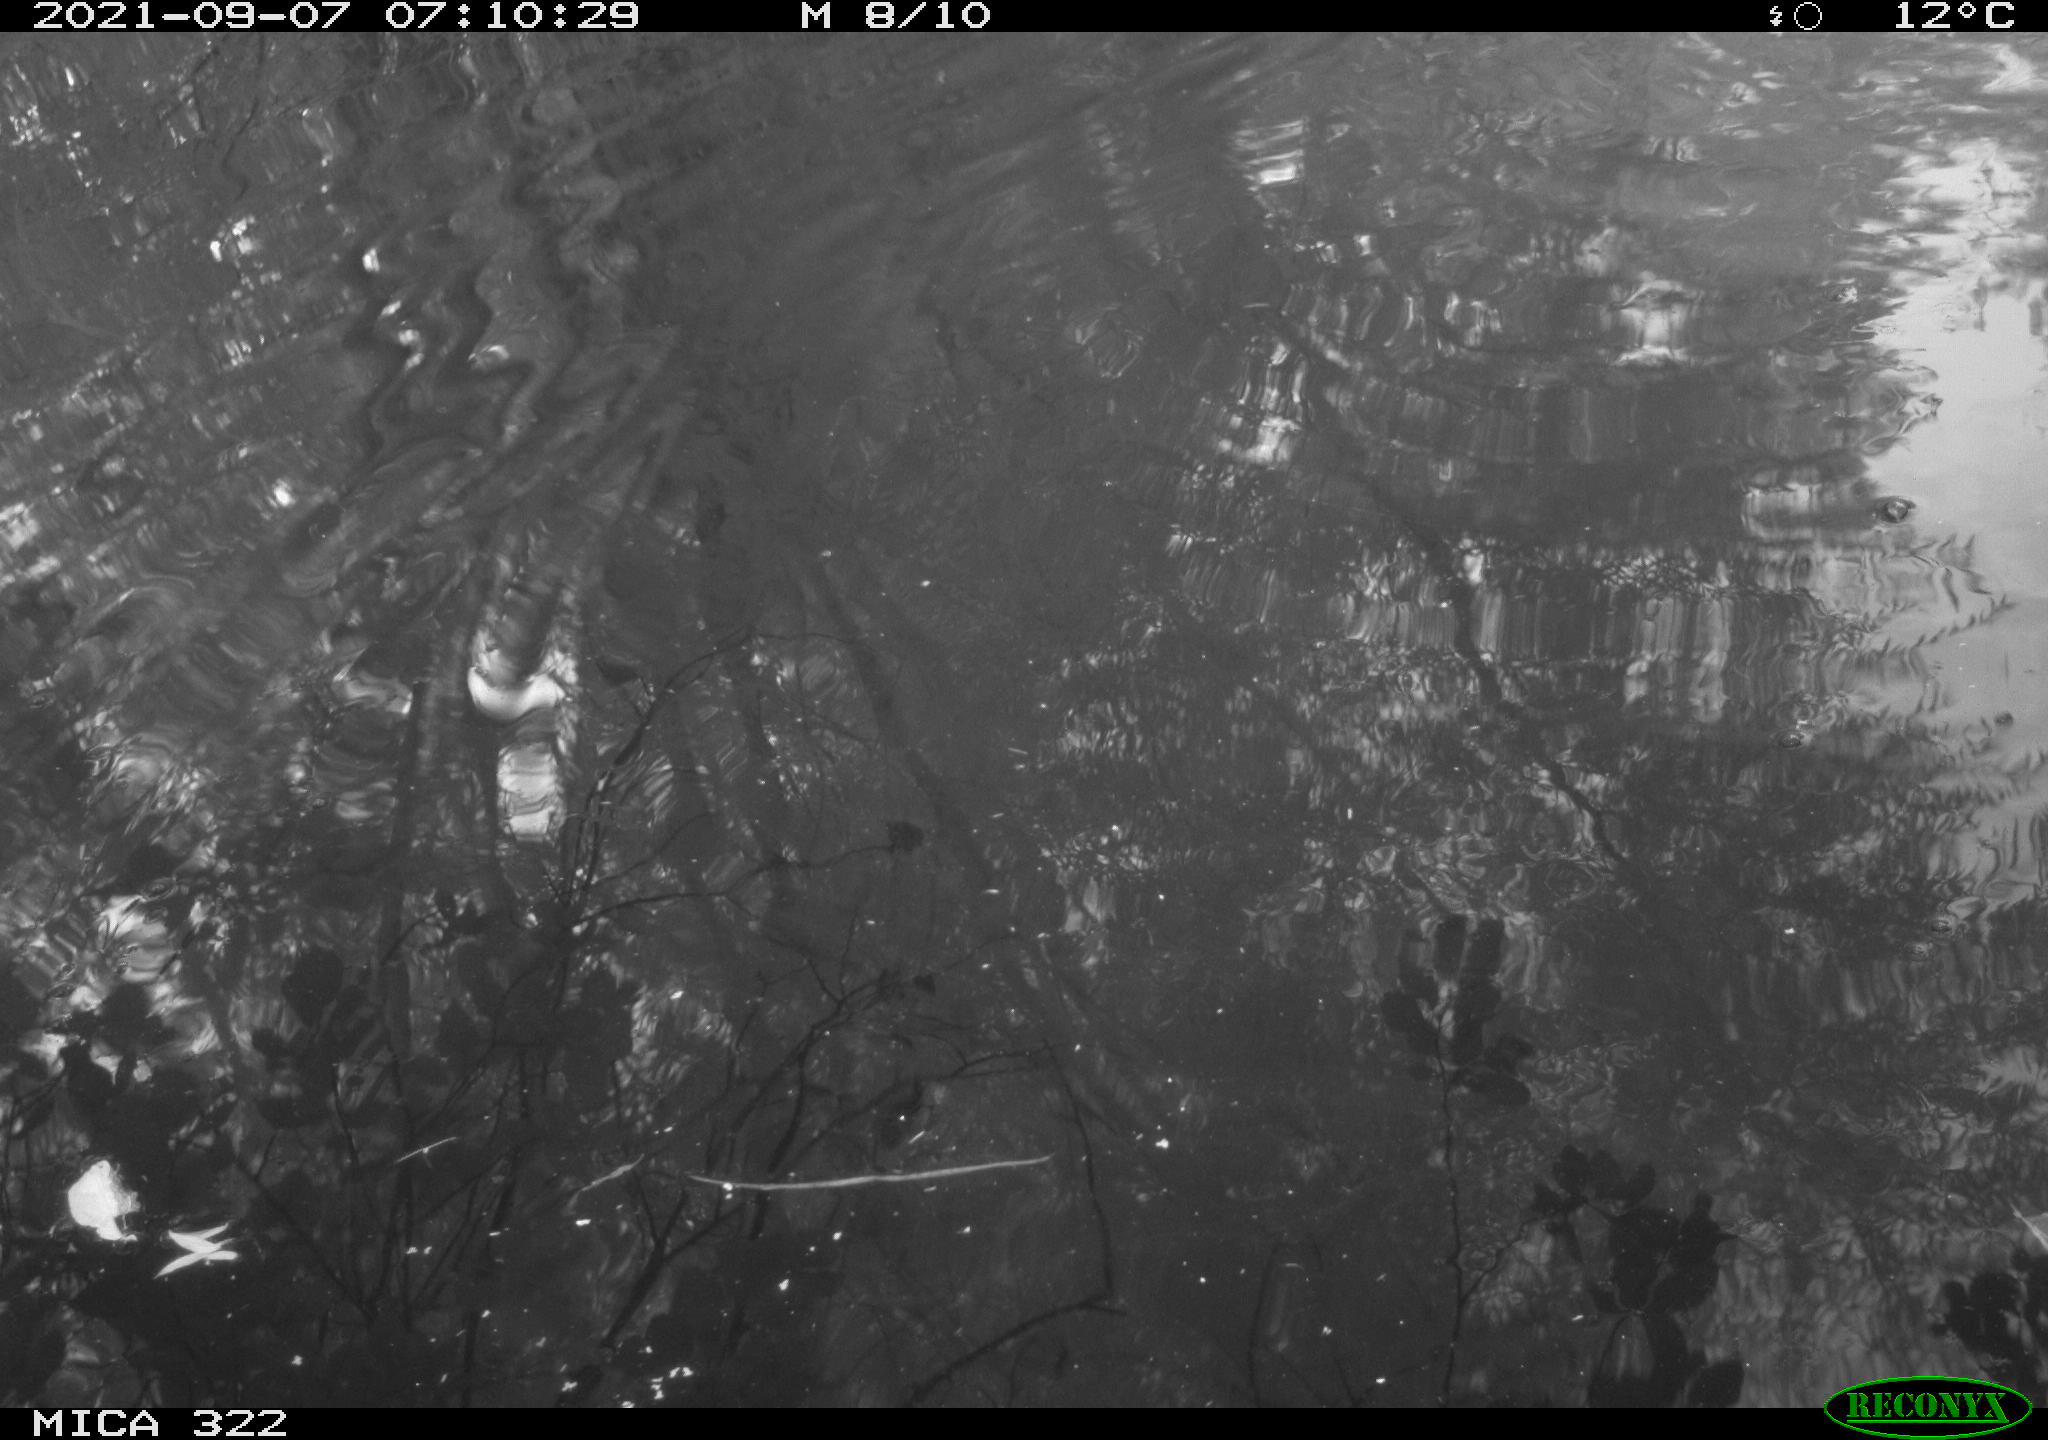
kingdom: Animalia
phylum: Chordata
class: Aves
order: Gruiformes
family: Rallidae
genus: Gallinula
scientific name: Gallinula chloropus
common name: Common moorhen
